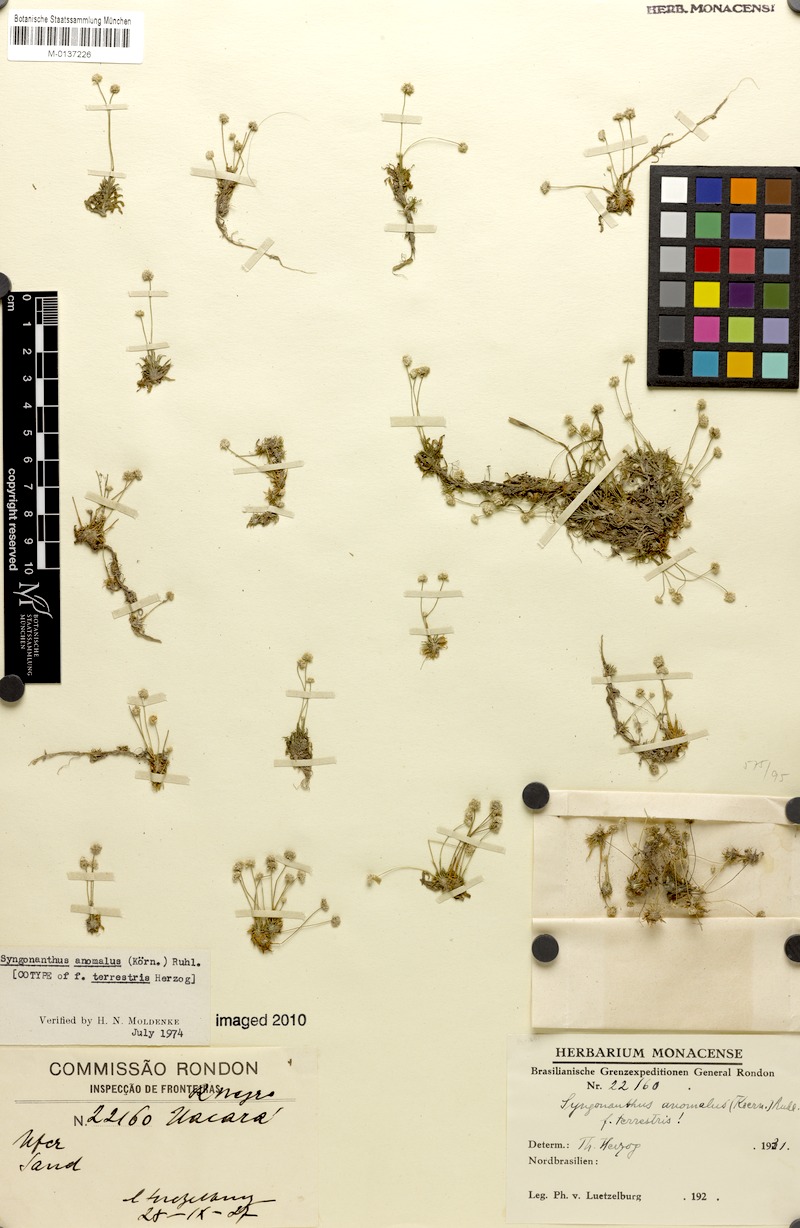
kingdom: Plantae
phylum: Tracheophyta
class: Liliopsida
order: Poales
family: Eriocaulaceae
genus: Syngonanthus
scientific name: Syngonanthus anomalus
